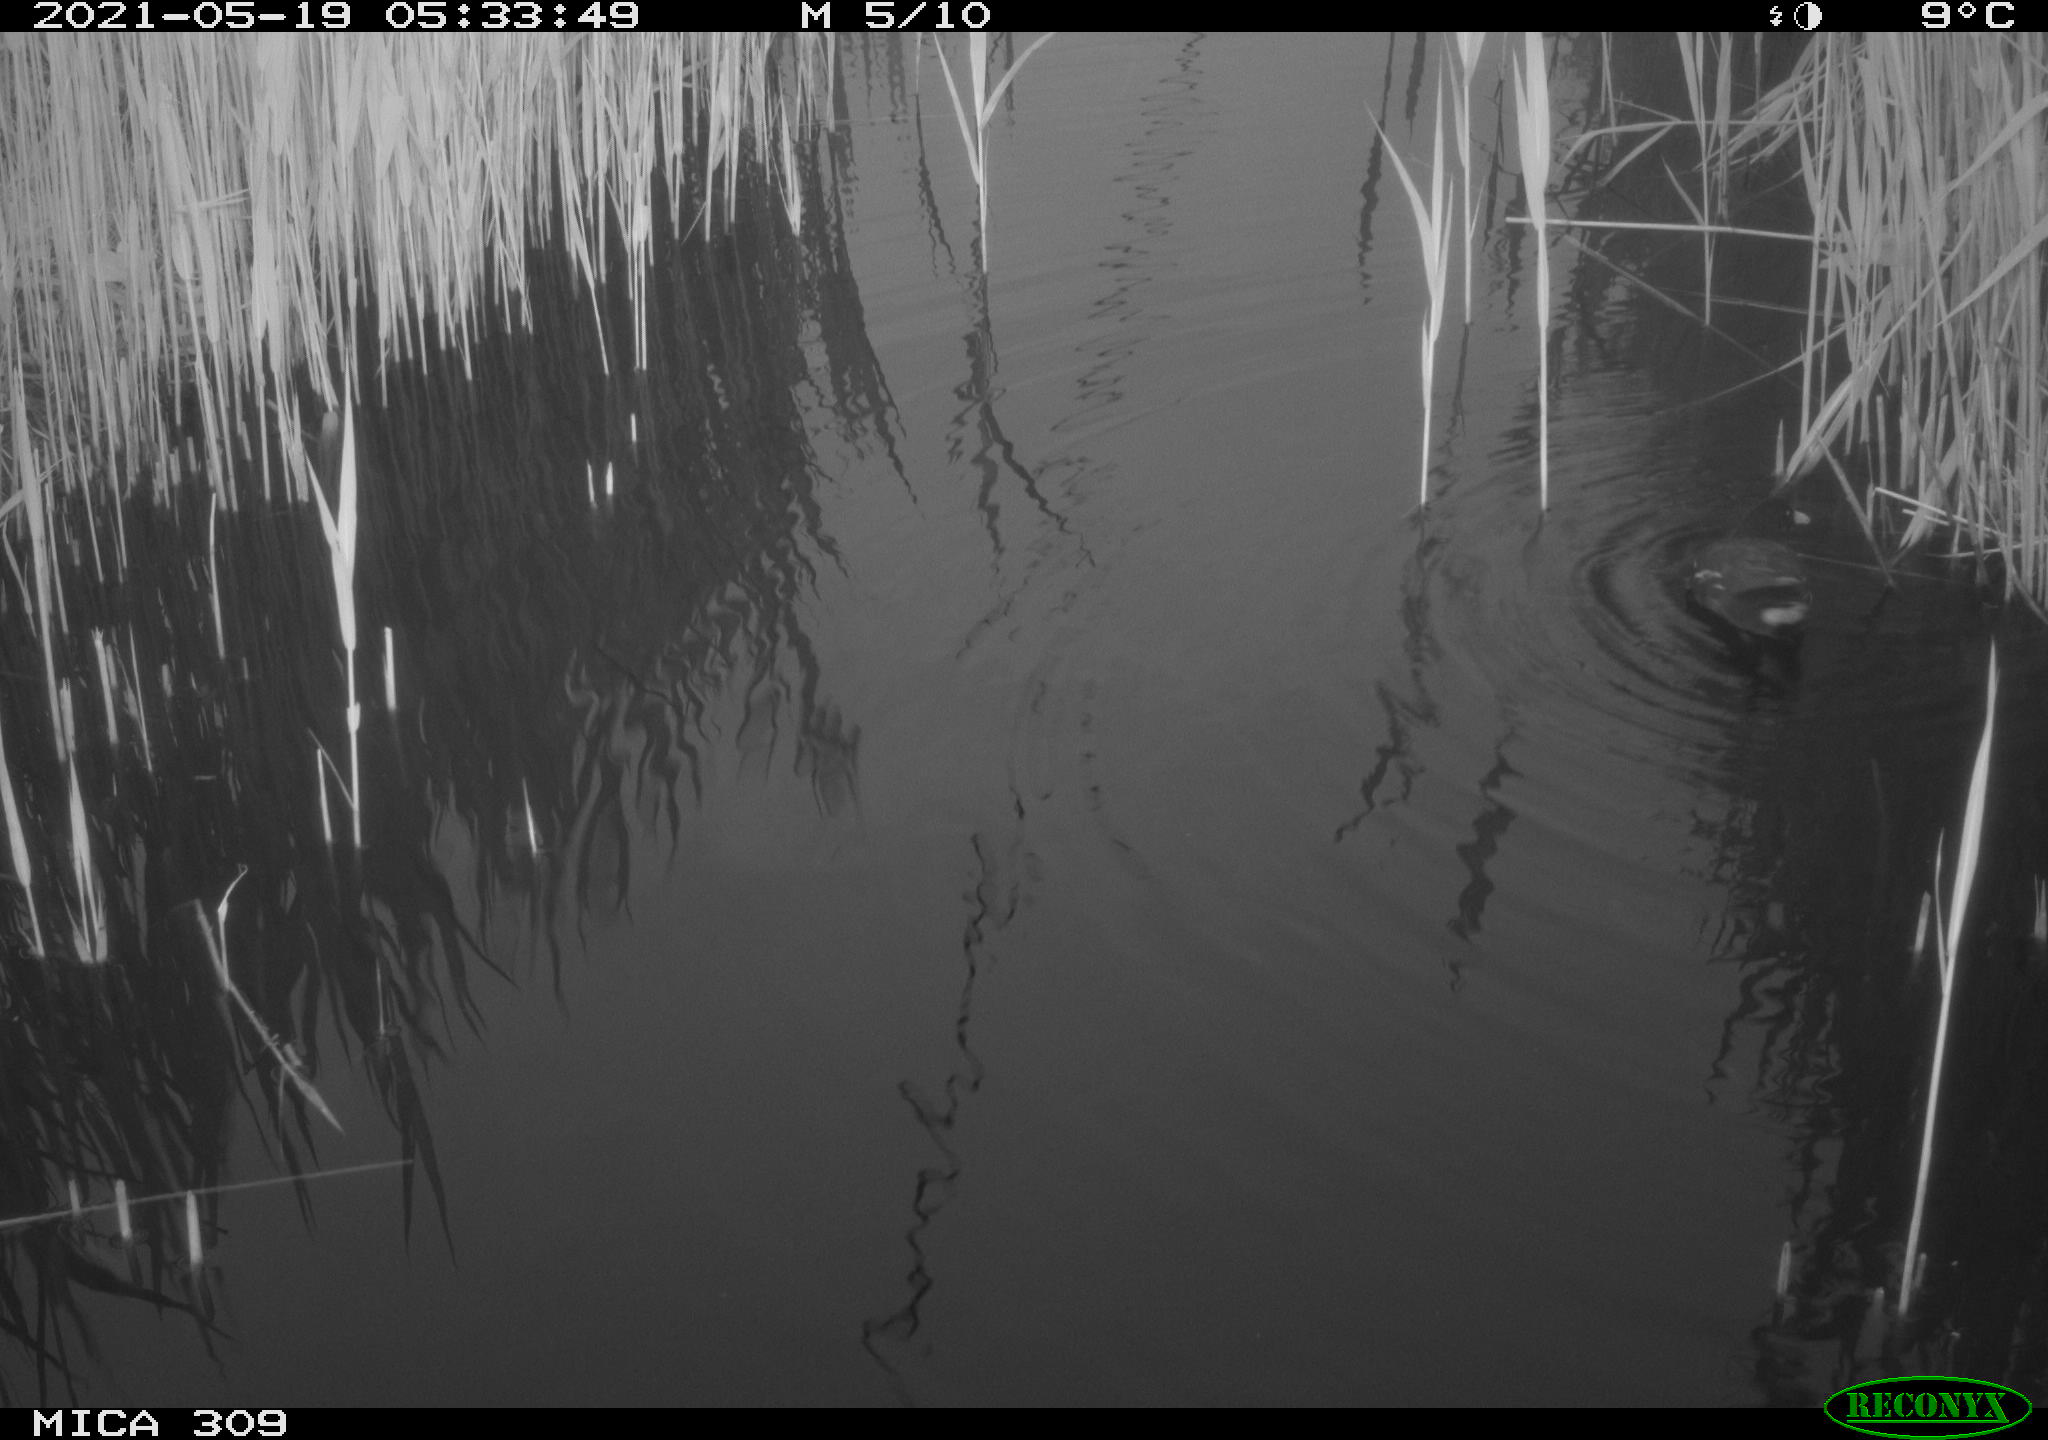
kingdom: Animalia
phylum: Chordata
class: Aves
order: Gruiformes
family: Rallidae
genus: Gallinula
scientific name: Gallinula chloropus
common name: Common moorhen
